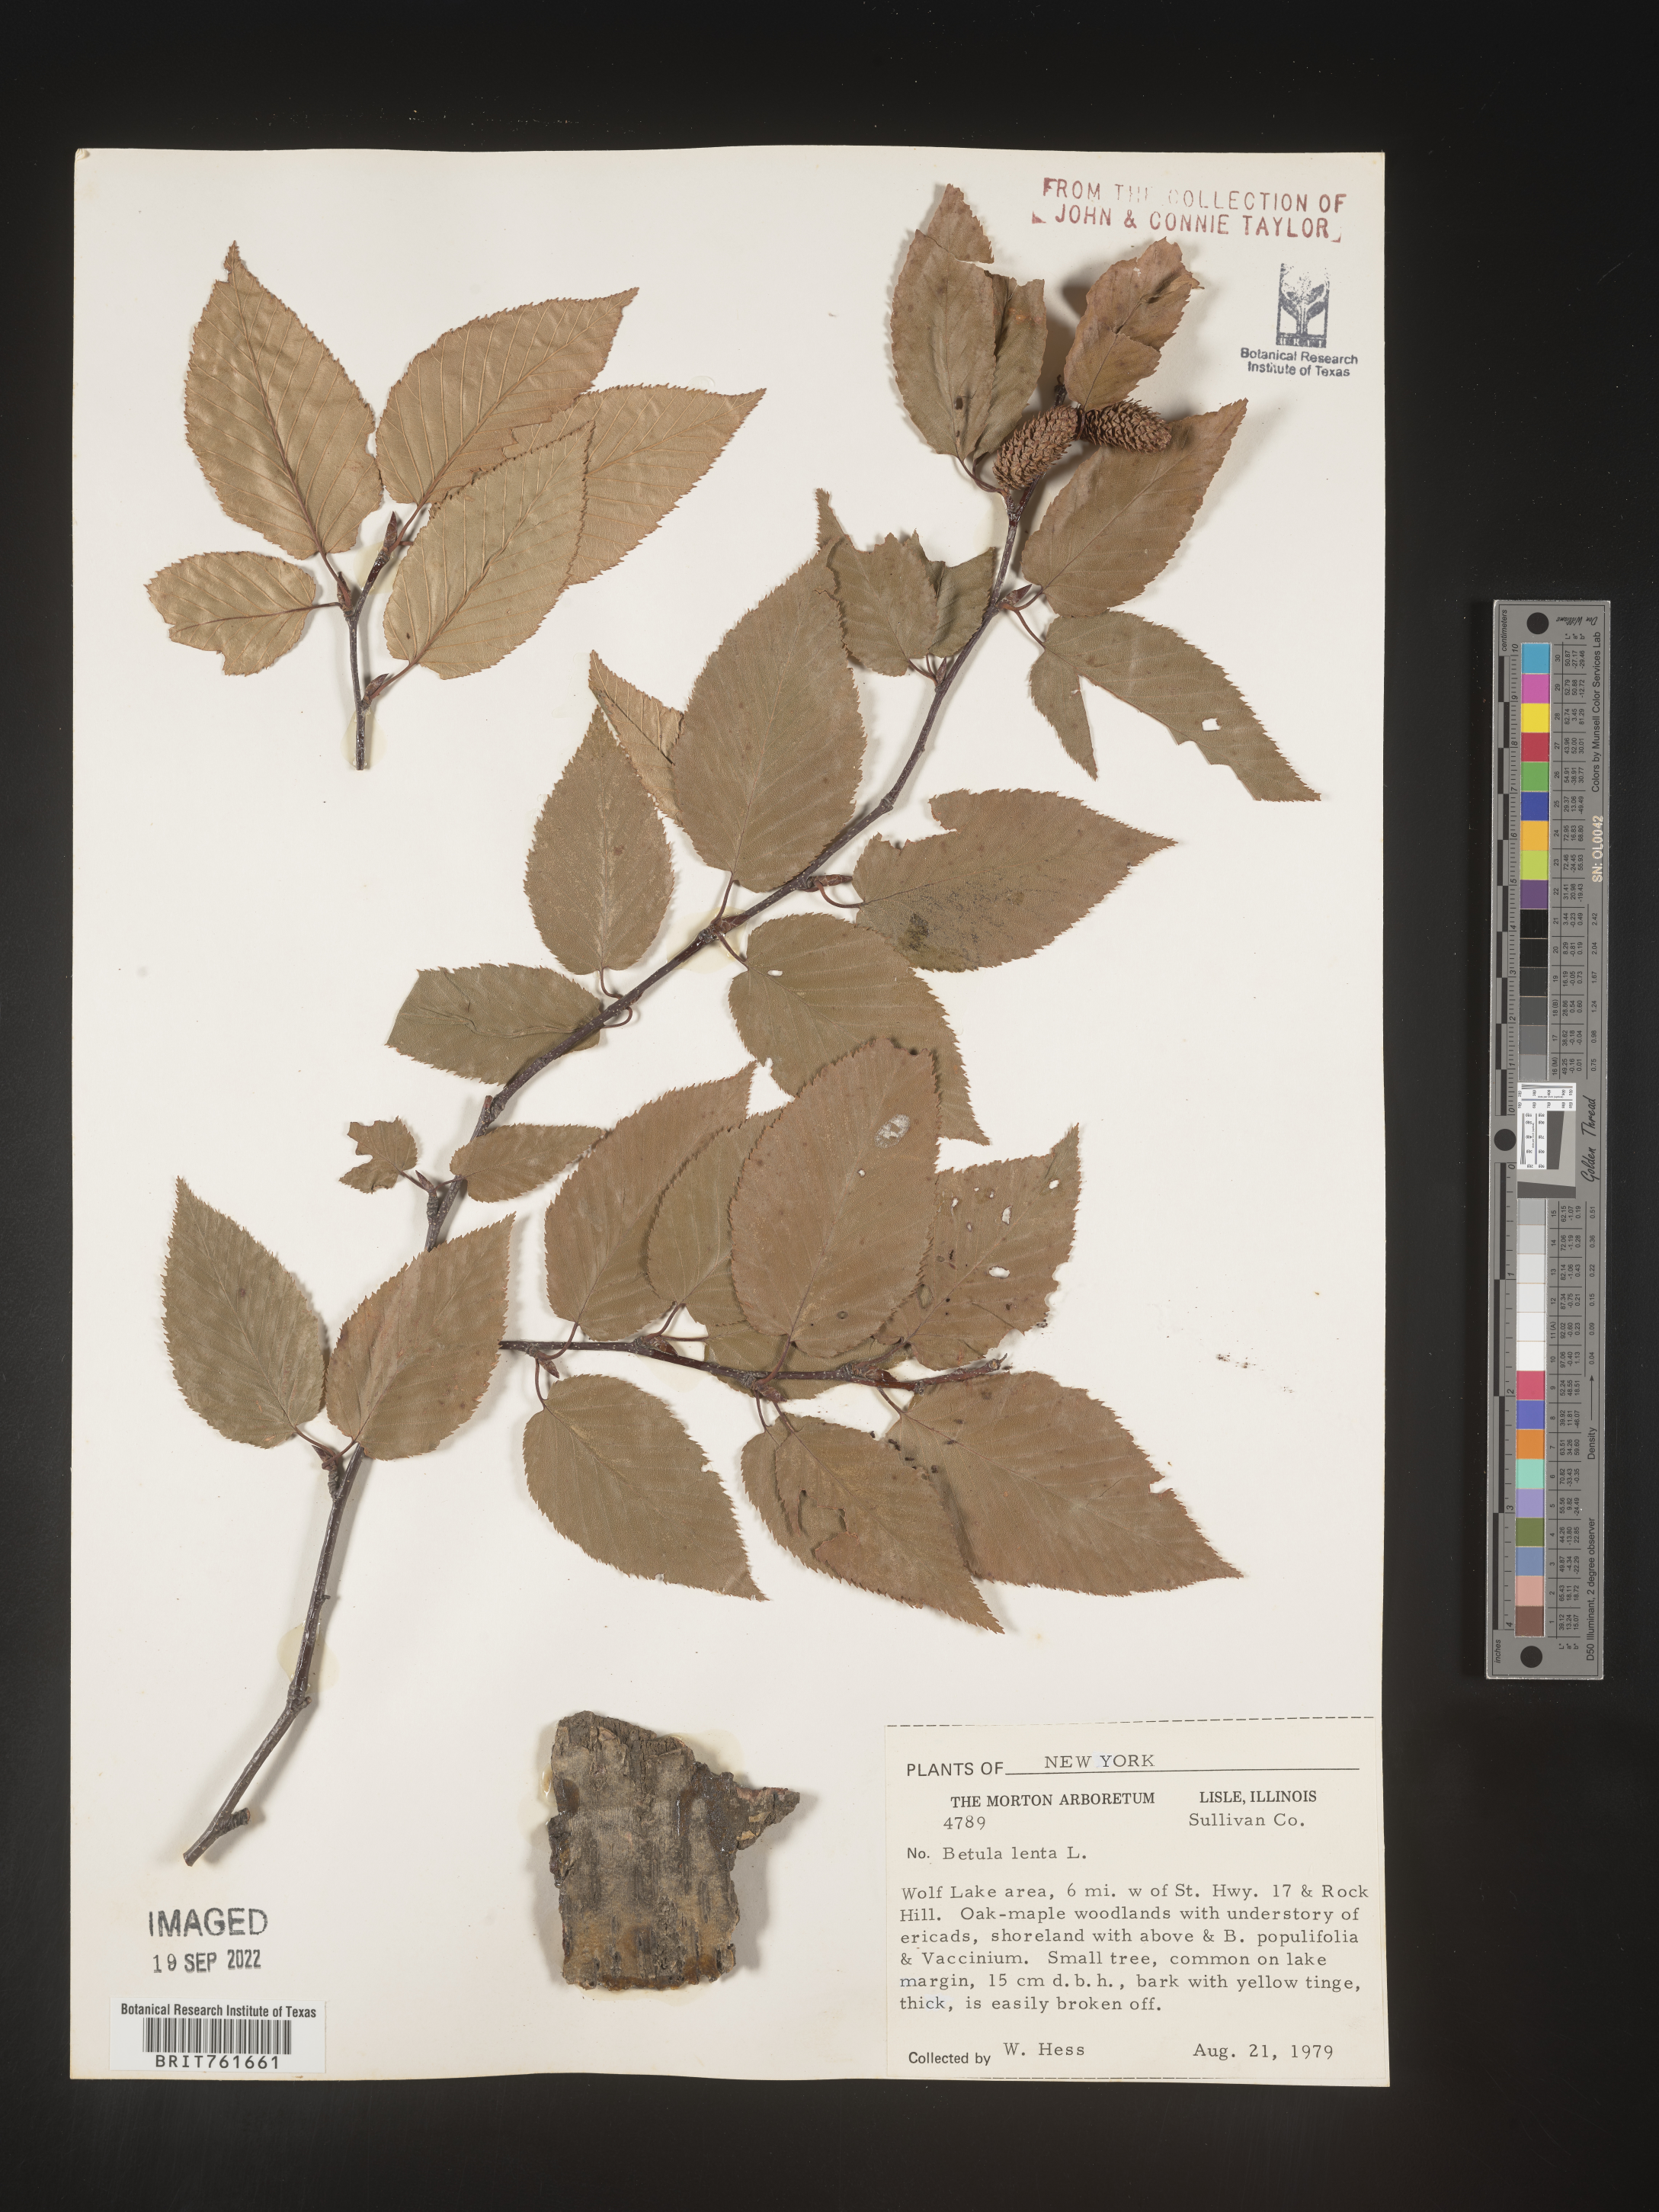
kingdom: Plantae
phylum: Tracheophyta
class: Magnoliopsida
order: Fagales
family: Betulaceae
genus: Betula
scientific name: Betula lenta
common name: Black birch
